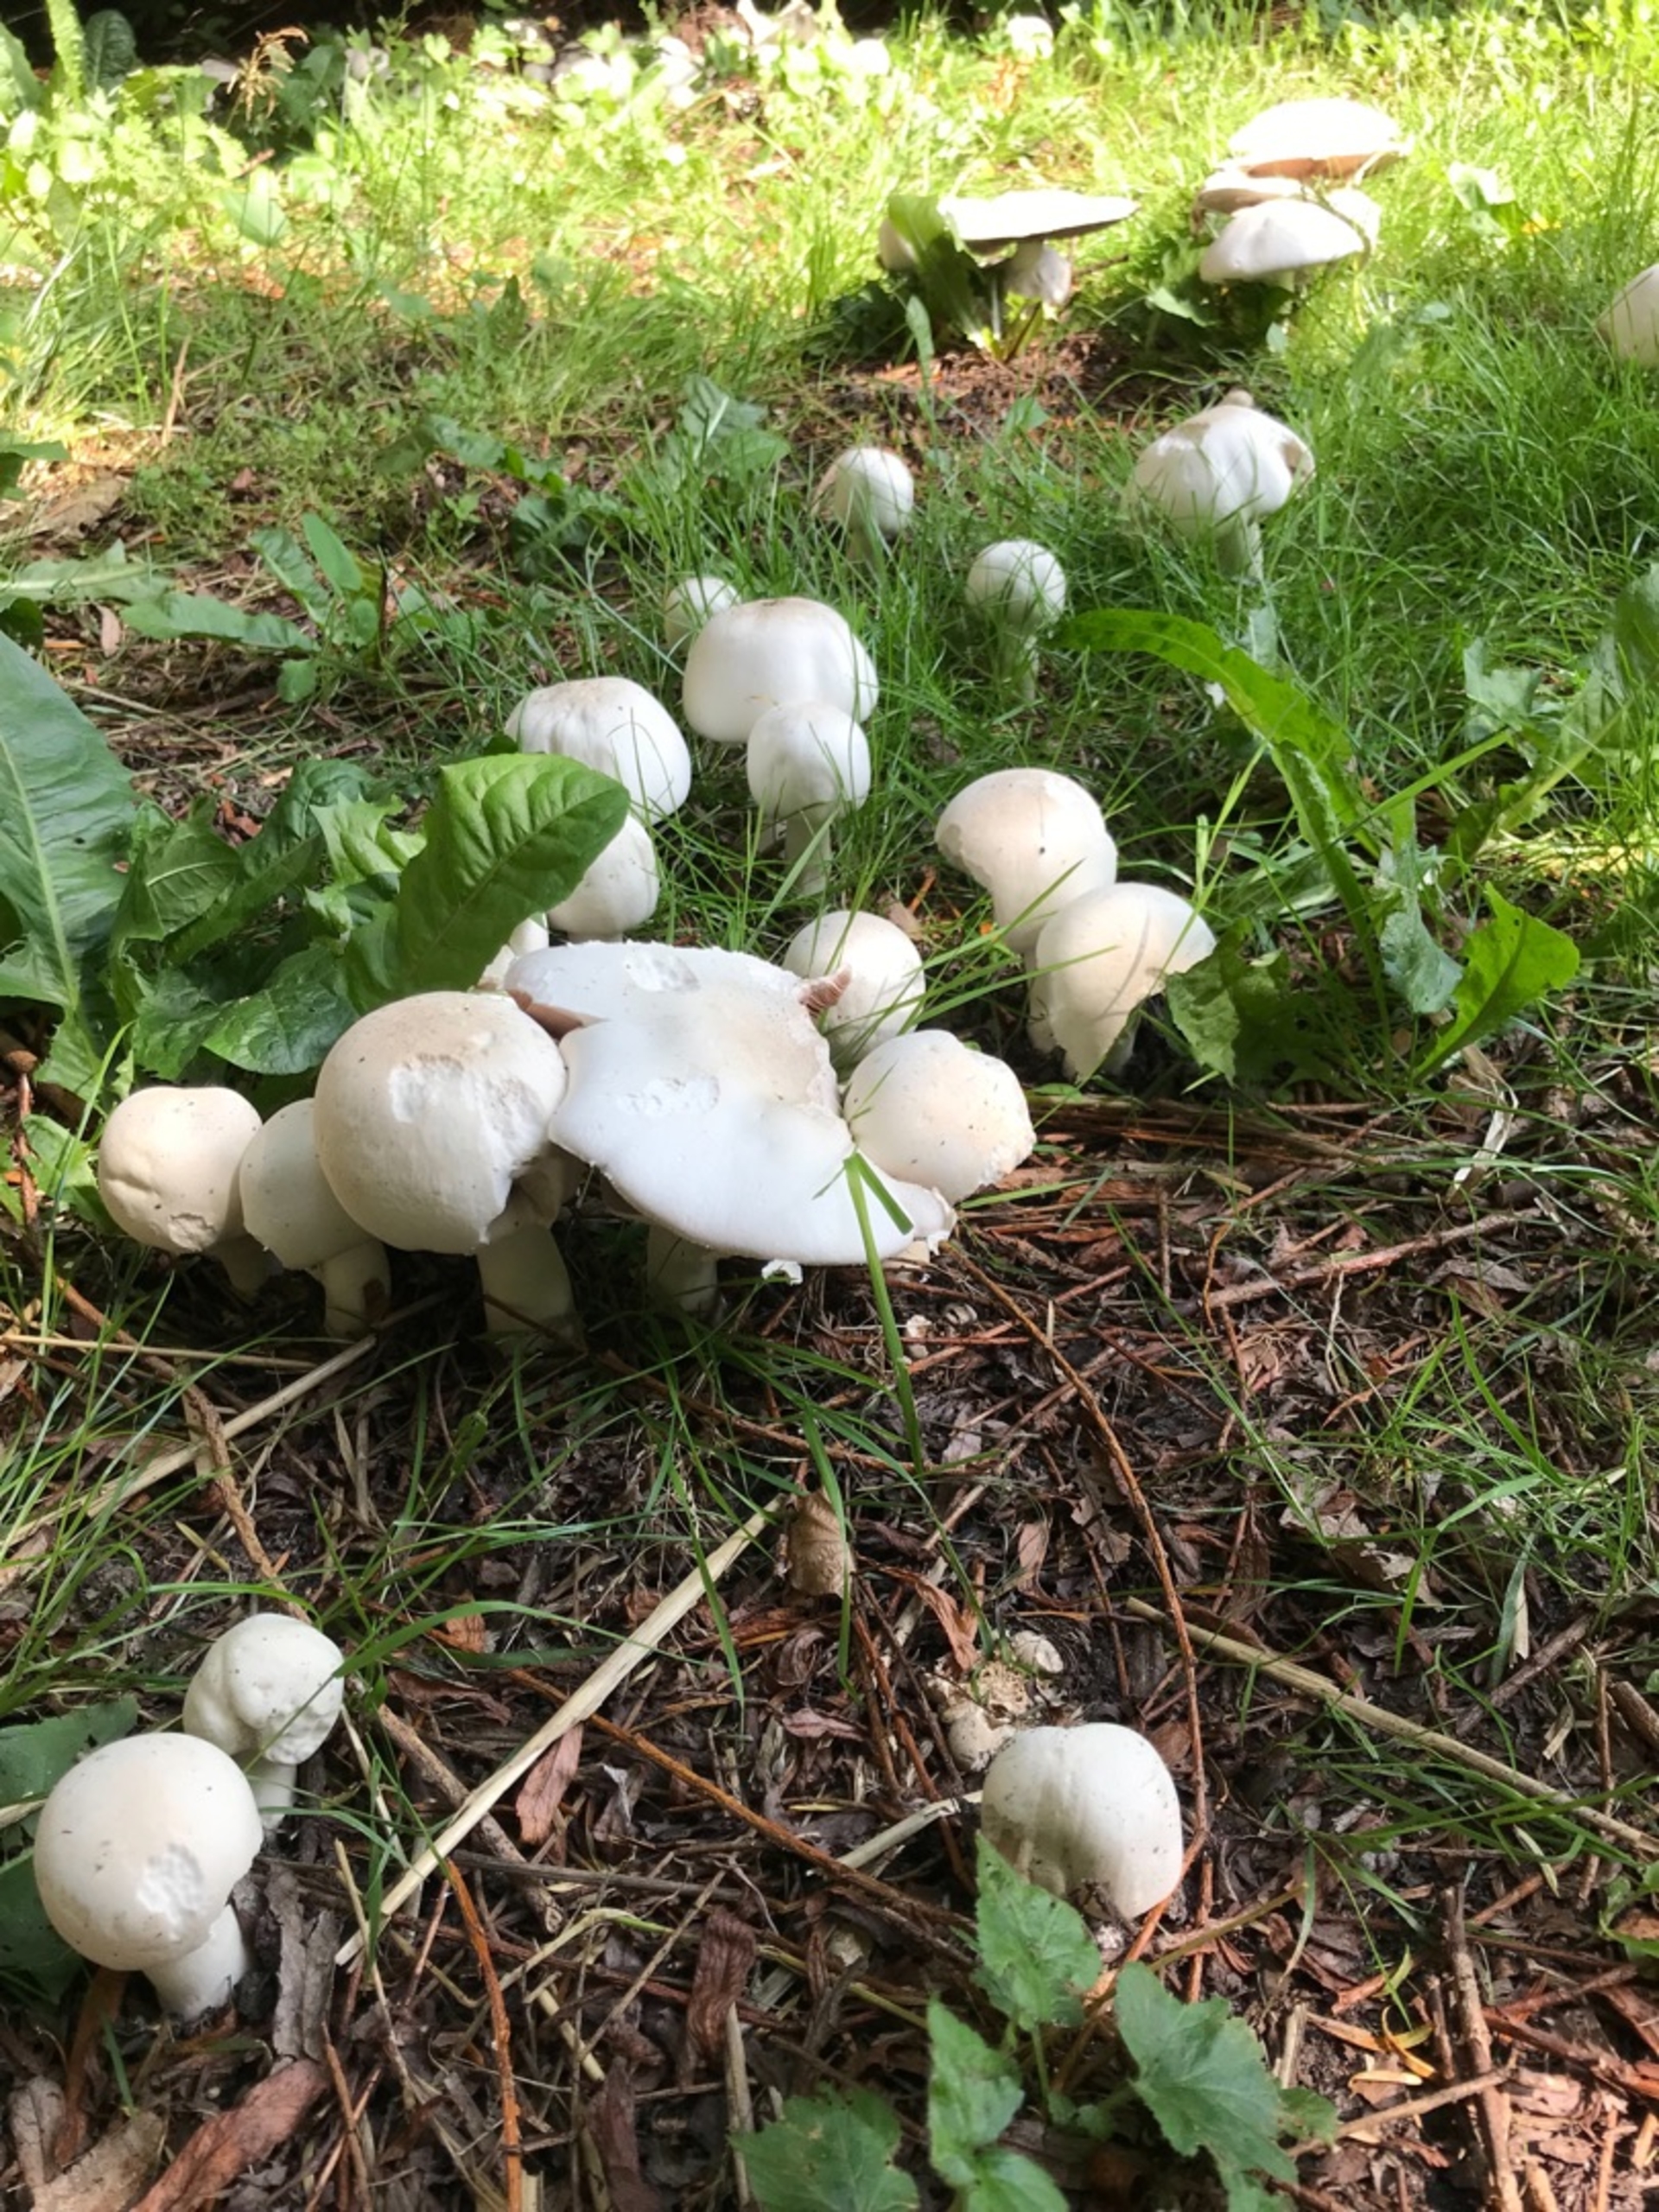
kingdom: Fungi
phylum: Basidiomycota
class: Agaricomycetes
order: Agaricales
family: Agaricaceae
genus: Agaricus
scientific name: Agaricus xanthodermus
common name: Karbol-champignon
